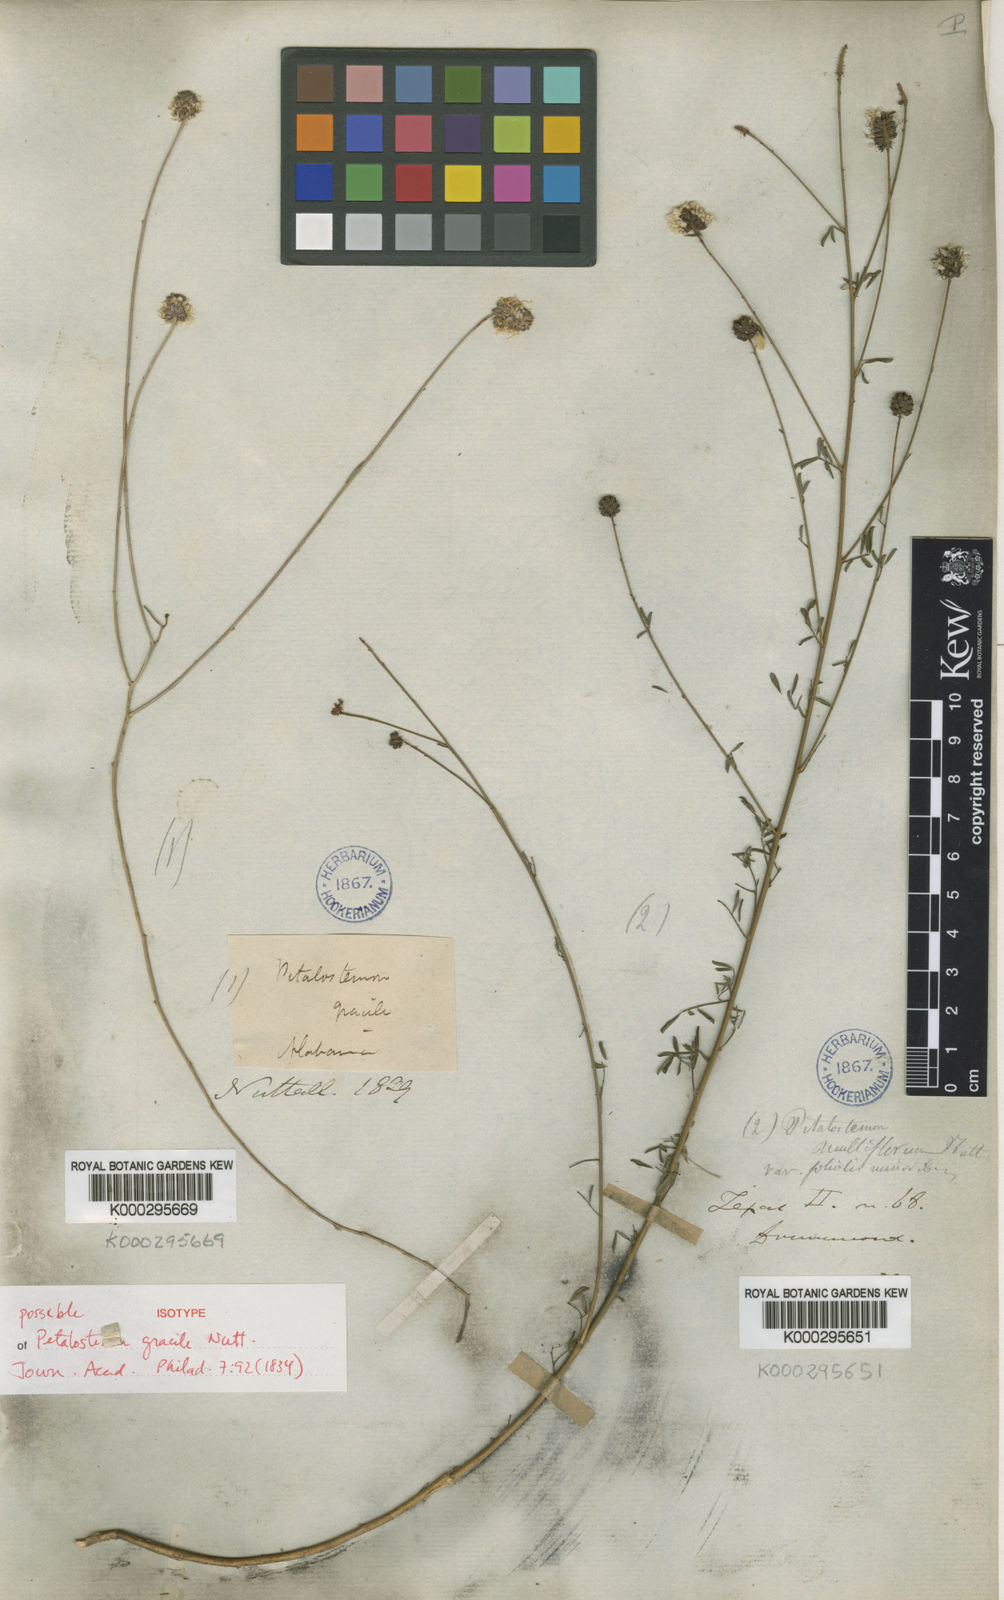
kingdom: Plantae
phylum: Tracheophyta
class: Magnoliopsida
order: Fabales
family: Fabaceae
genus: Dalea
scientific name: Dalea mountjoyae
